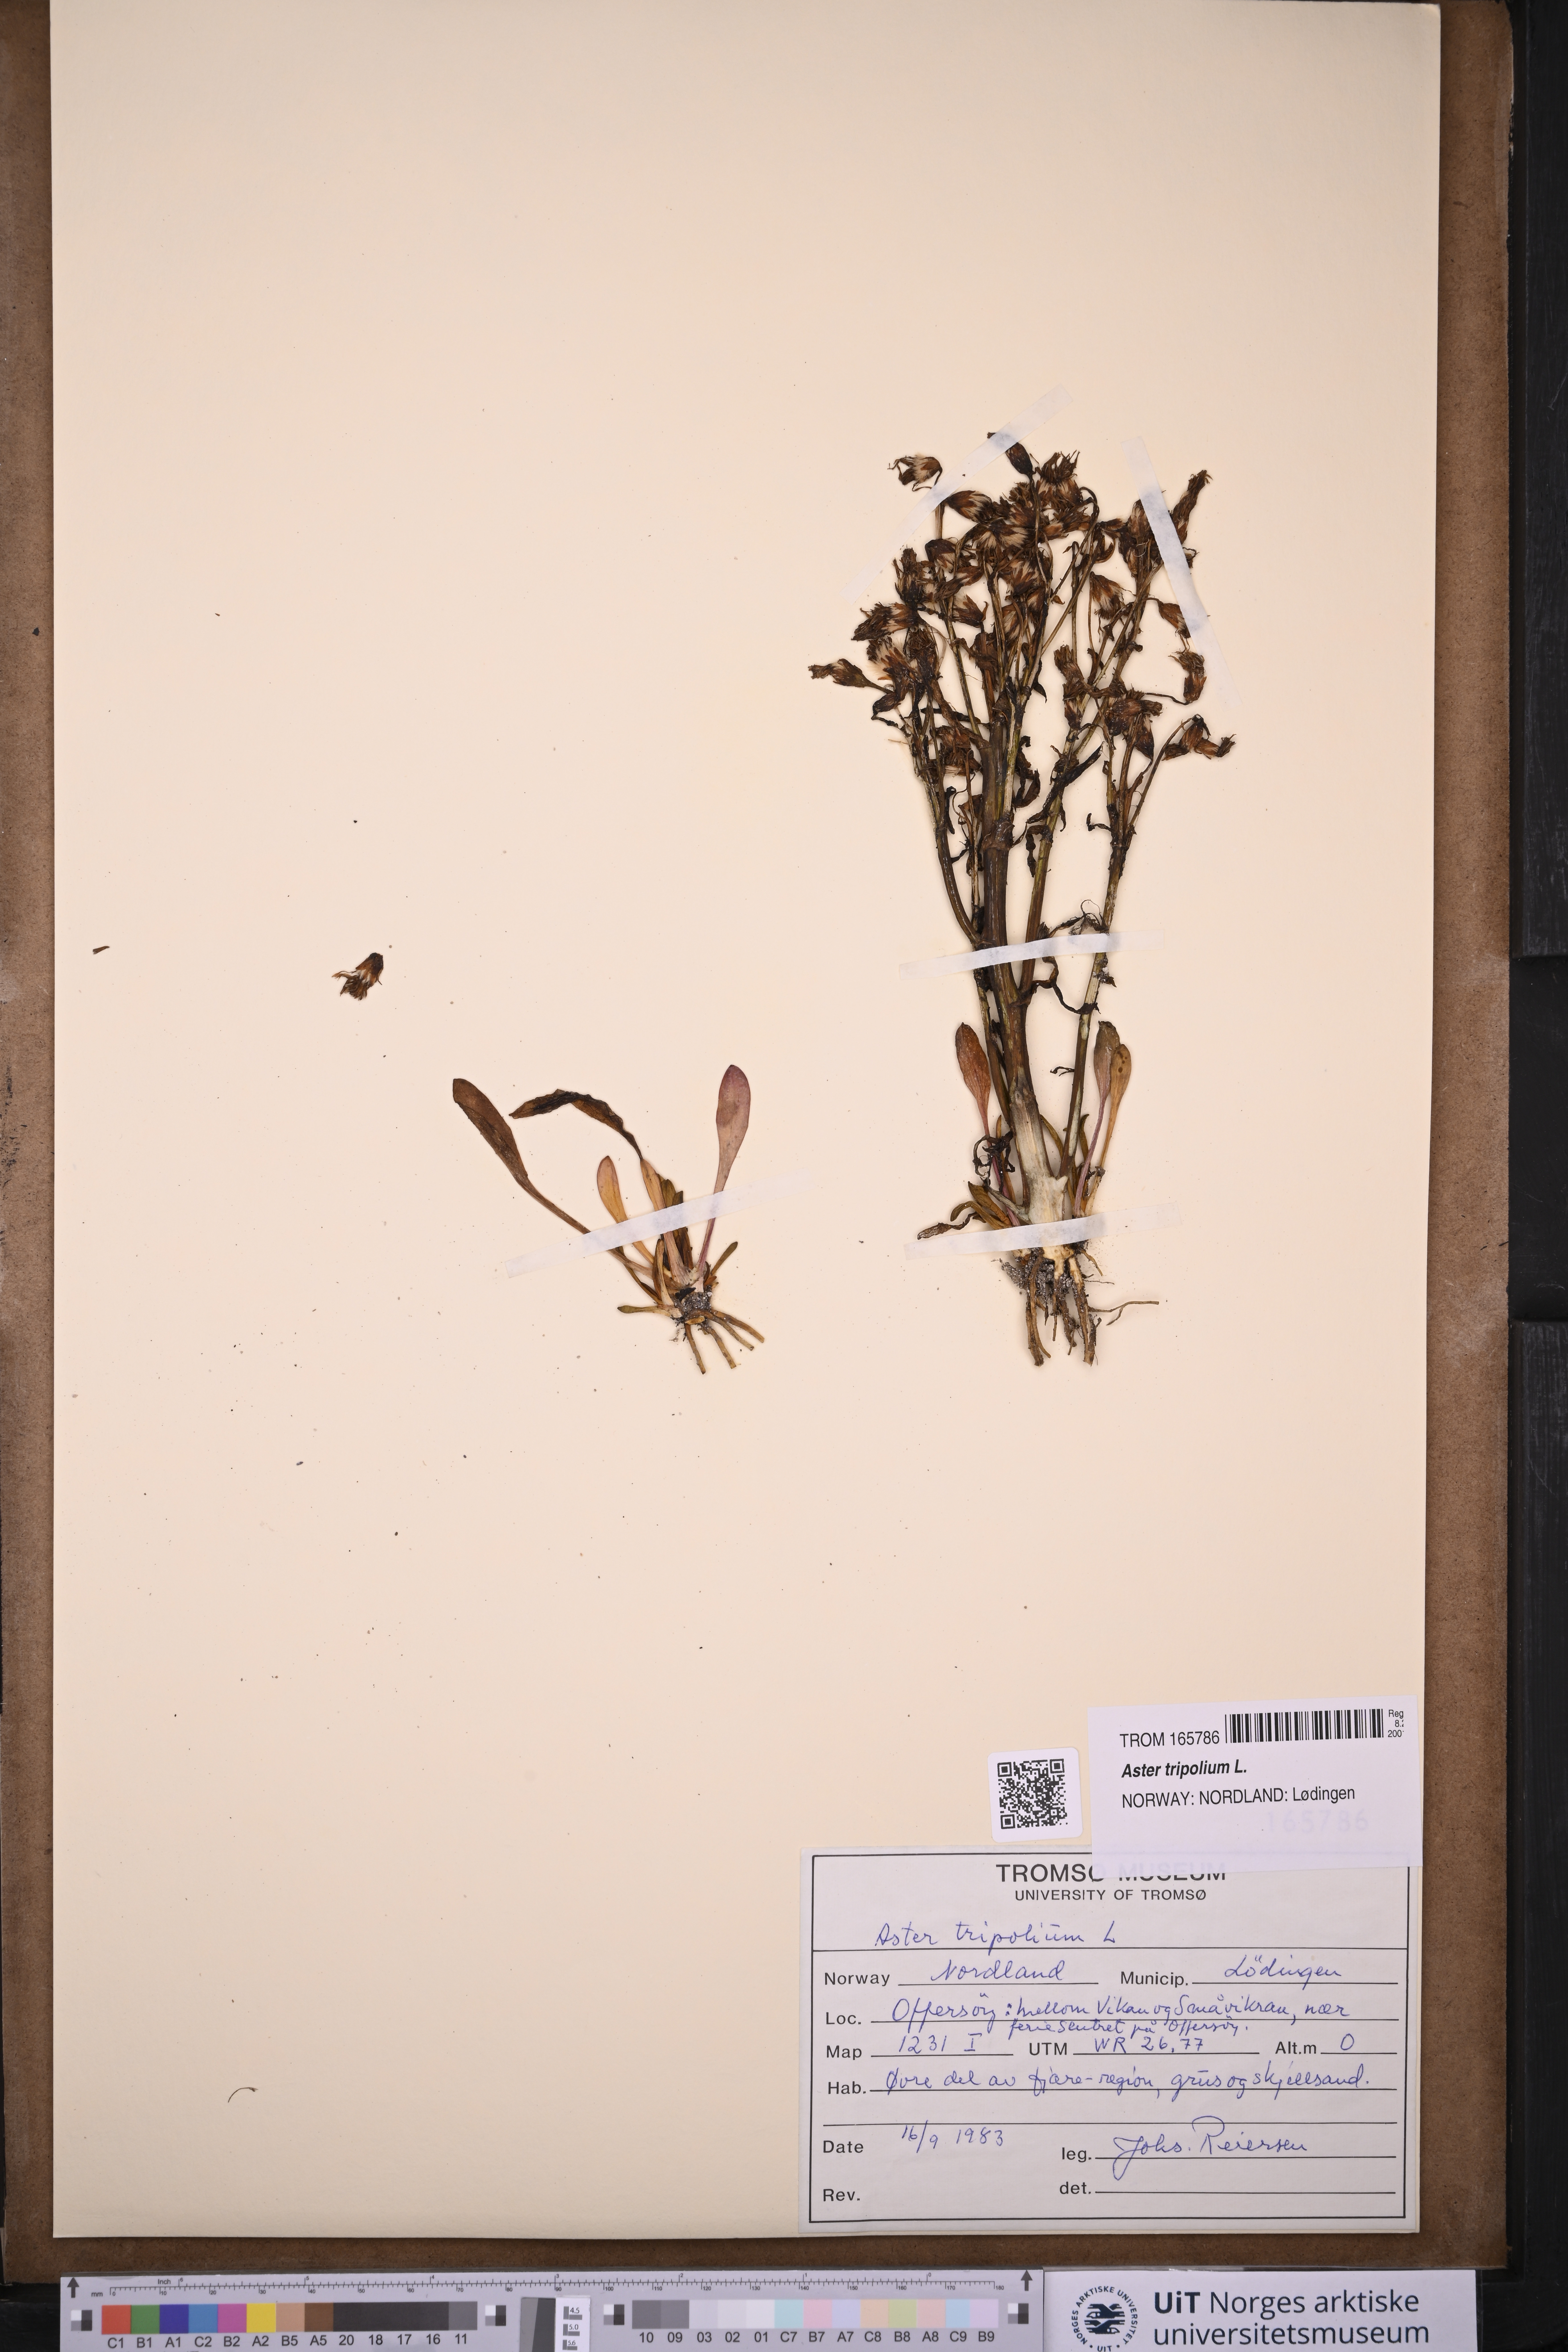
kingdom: Plantae
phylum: Tracheophyta
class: Magnoliopsida
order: Asterales
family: Asteraceae
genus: Tripolium
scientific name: Tripolium pannonicum
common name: Sea aster
